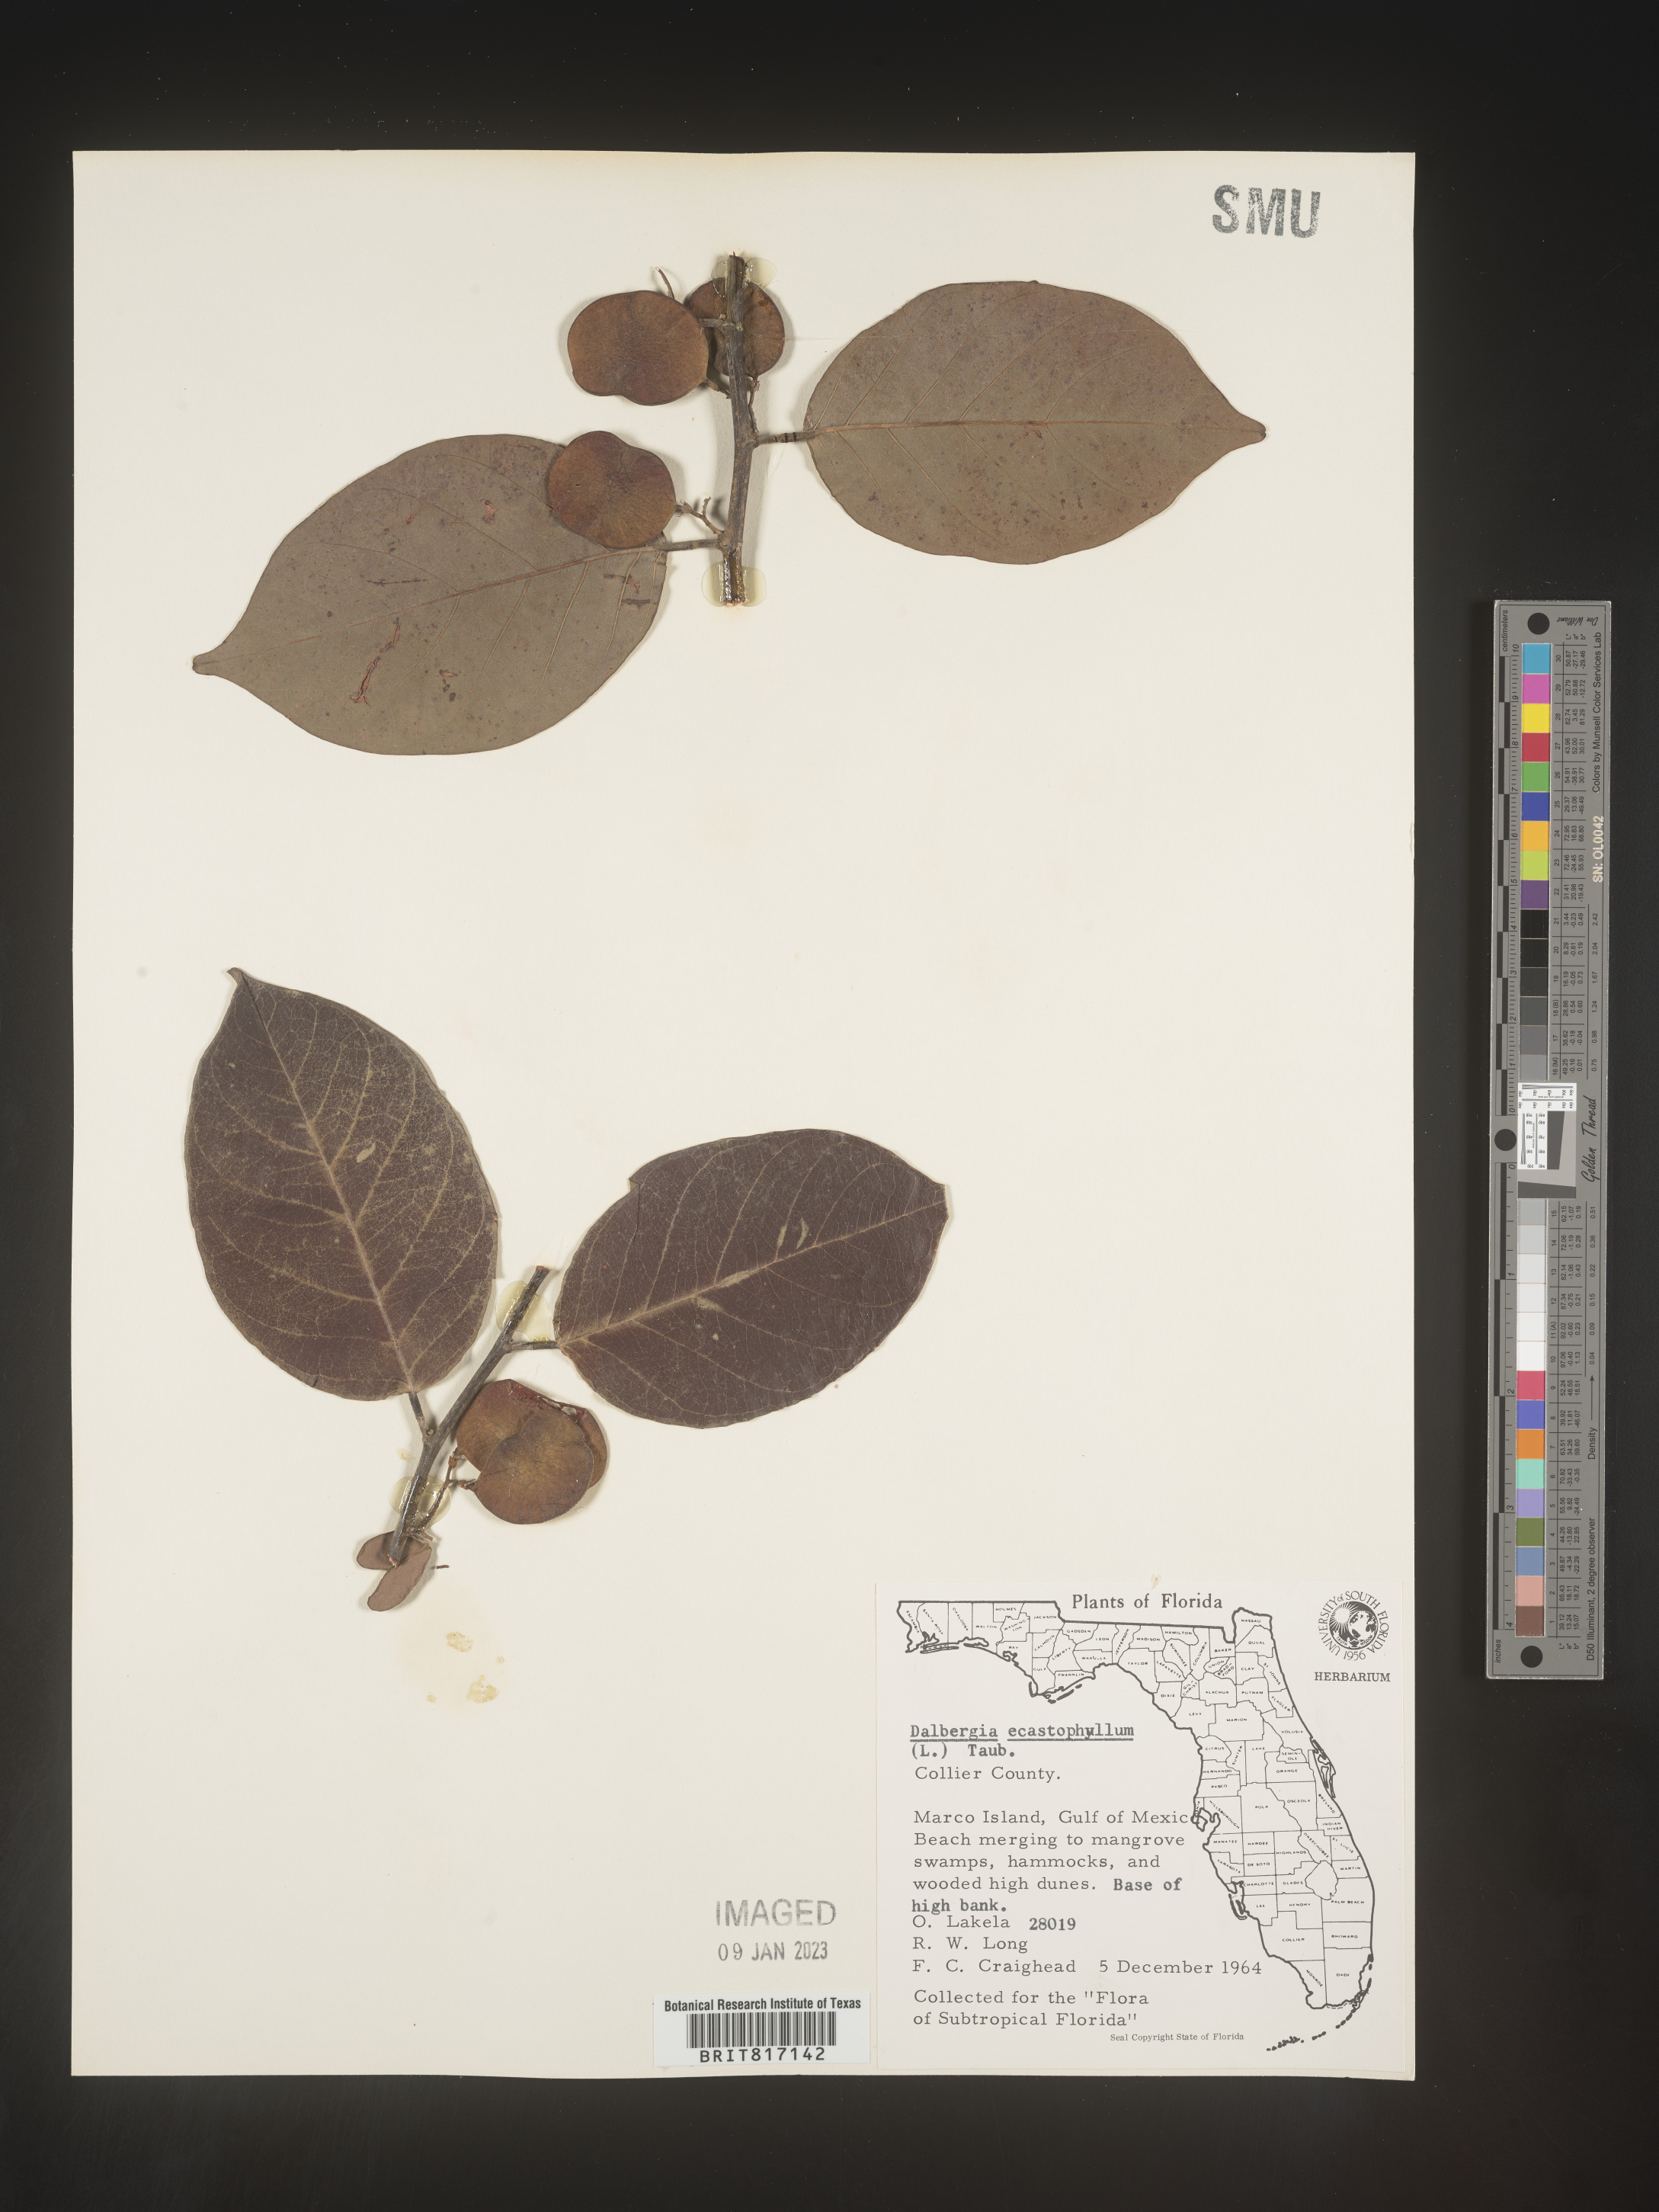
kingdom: Plantae
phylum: Tracheophyta
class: Magnoliopsida
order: Fabales
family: Fabaceae
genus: Dalbergia
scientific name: Dalbergia
